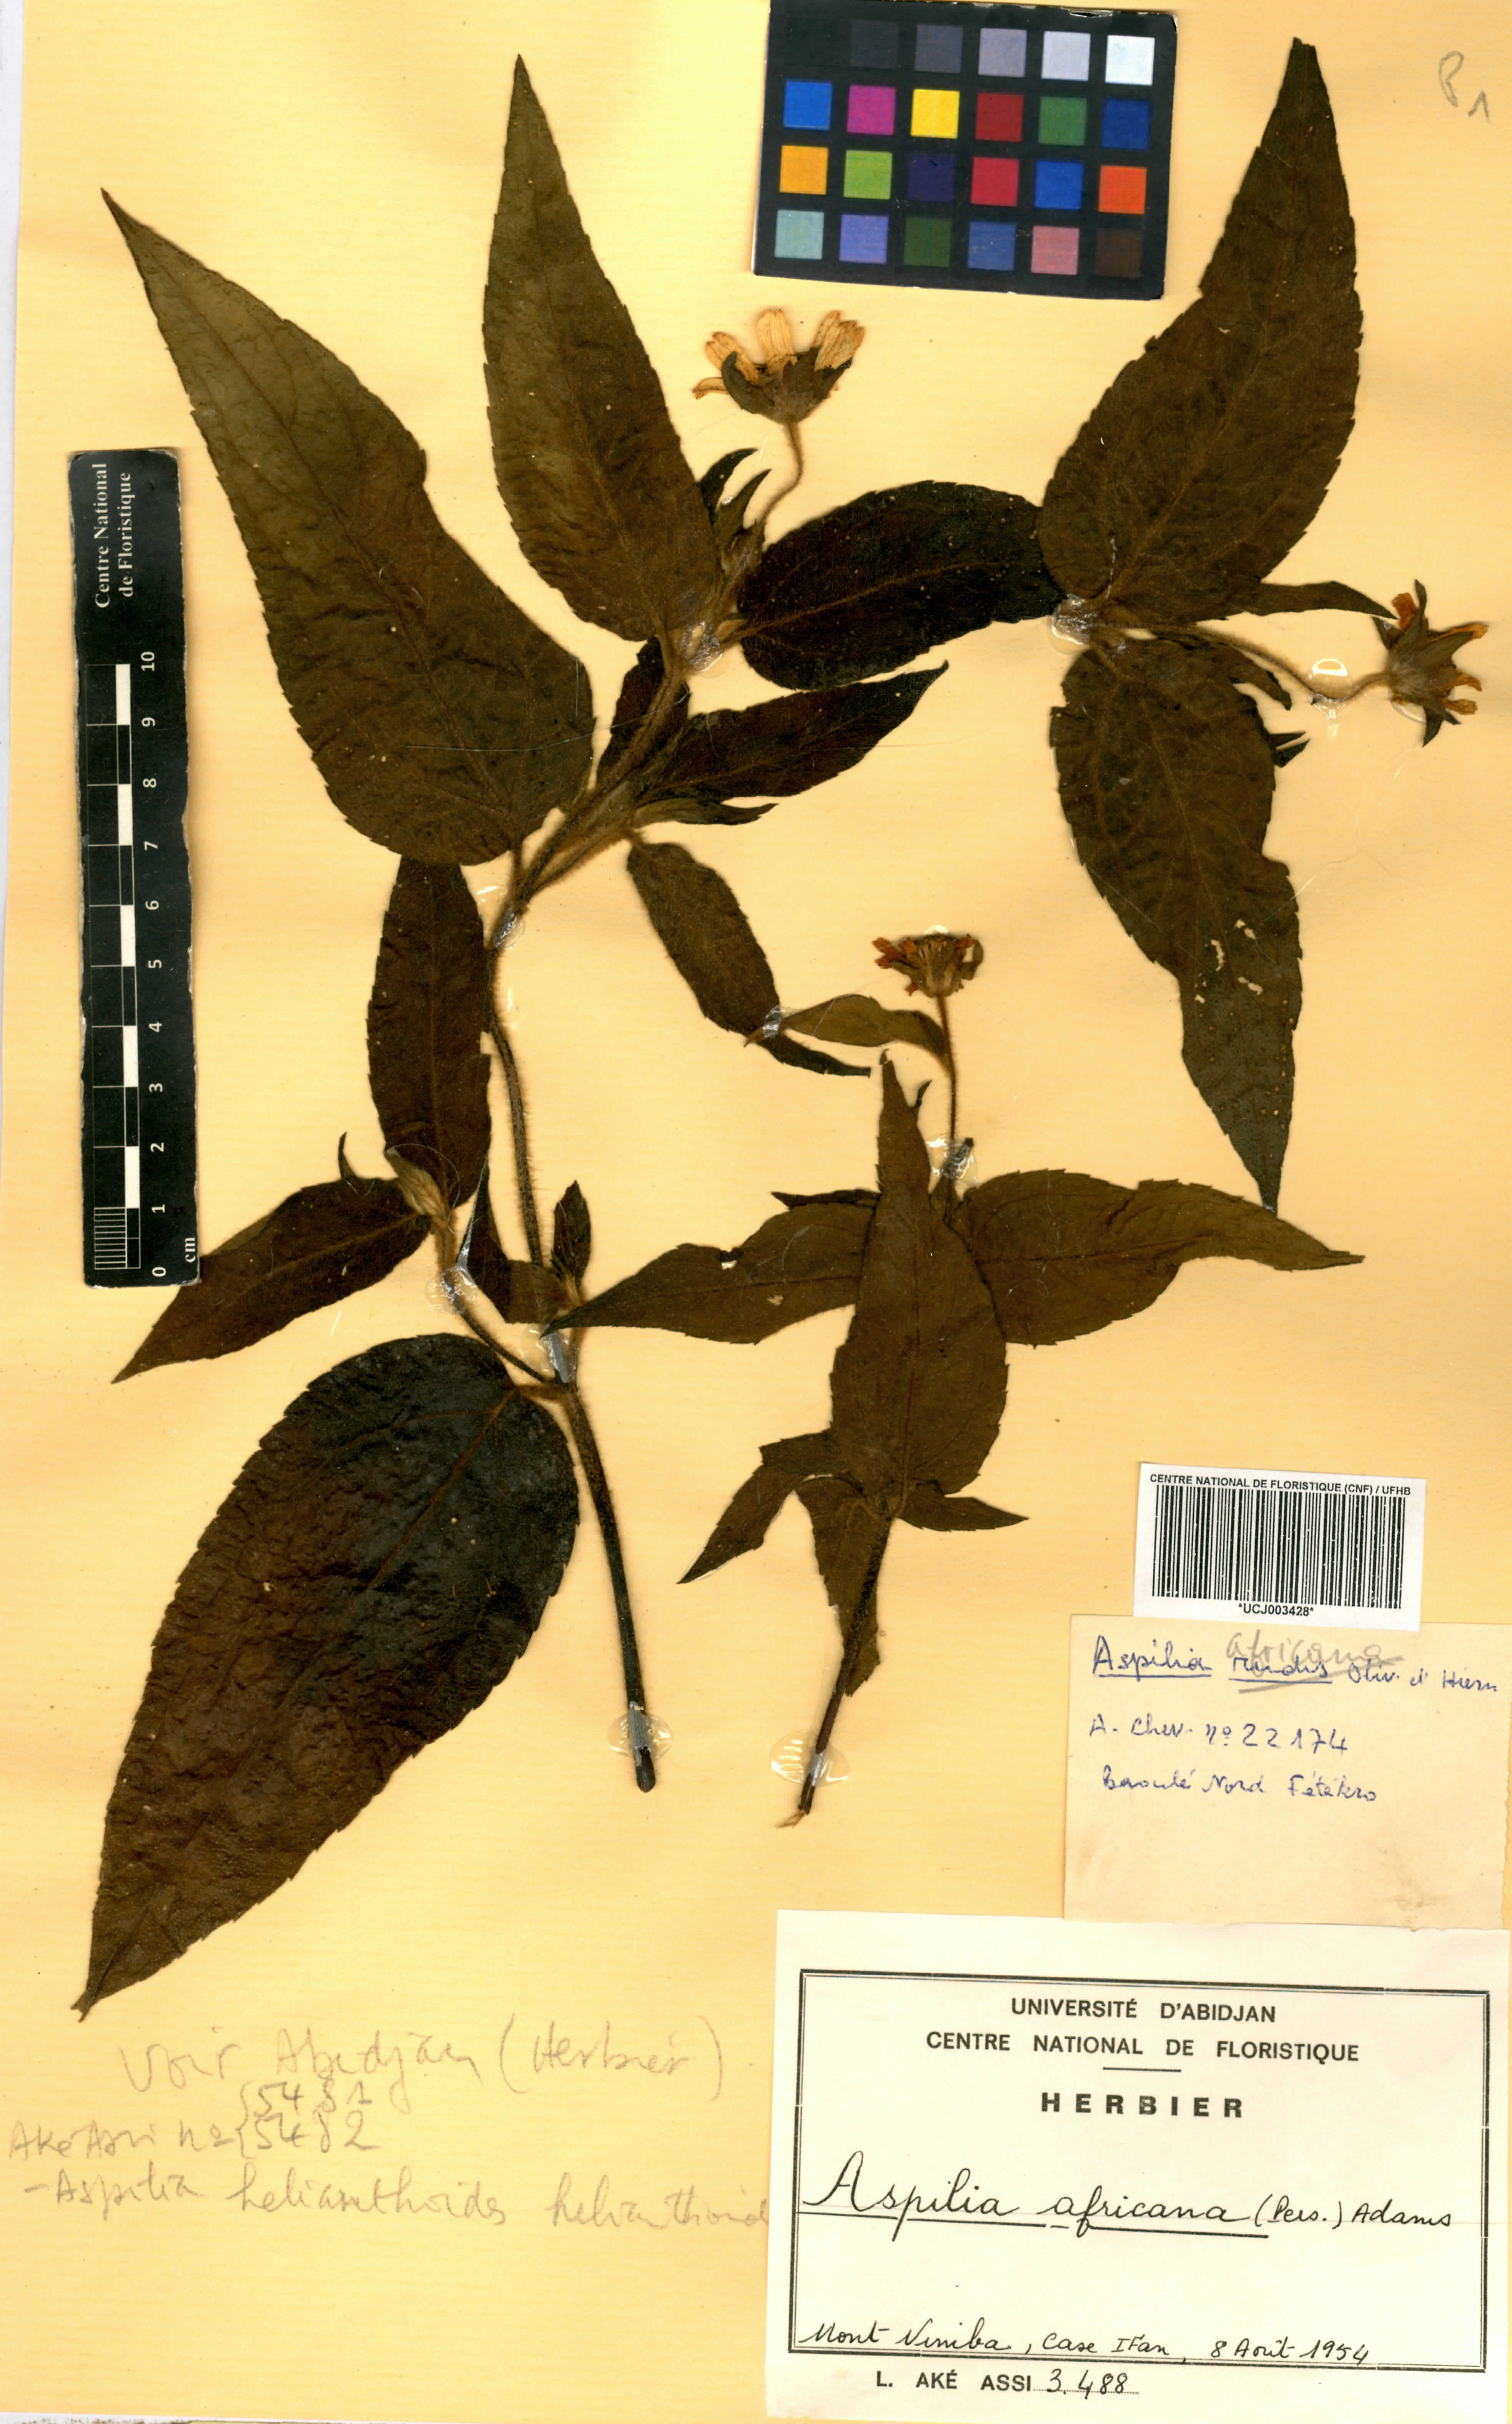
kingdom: Plantae
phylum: Tracheophyta
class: Magnoliopsida
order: Asterales
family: Asteraceae
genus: Aspilia
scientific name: Aspilia africana
